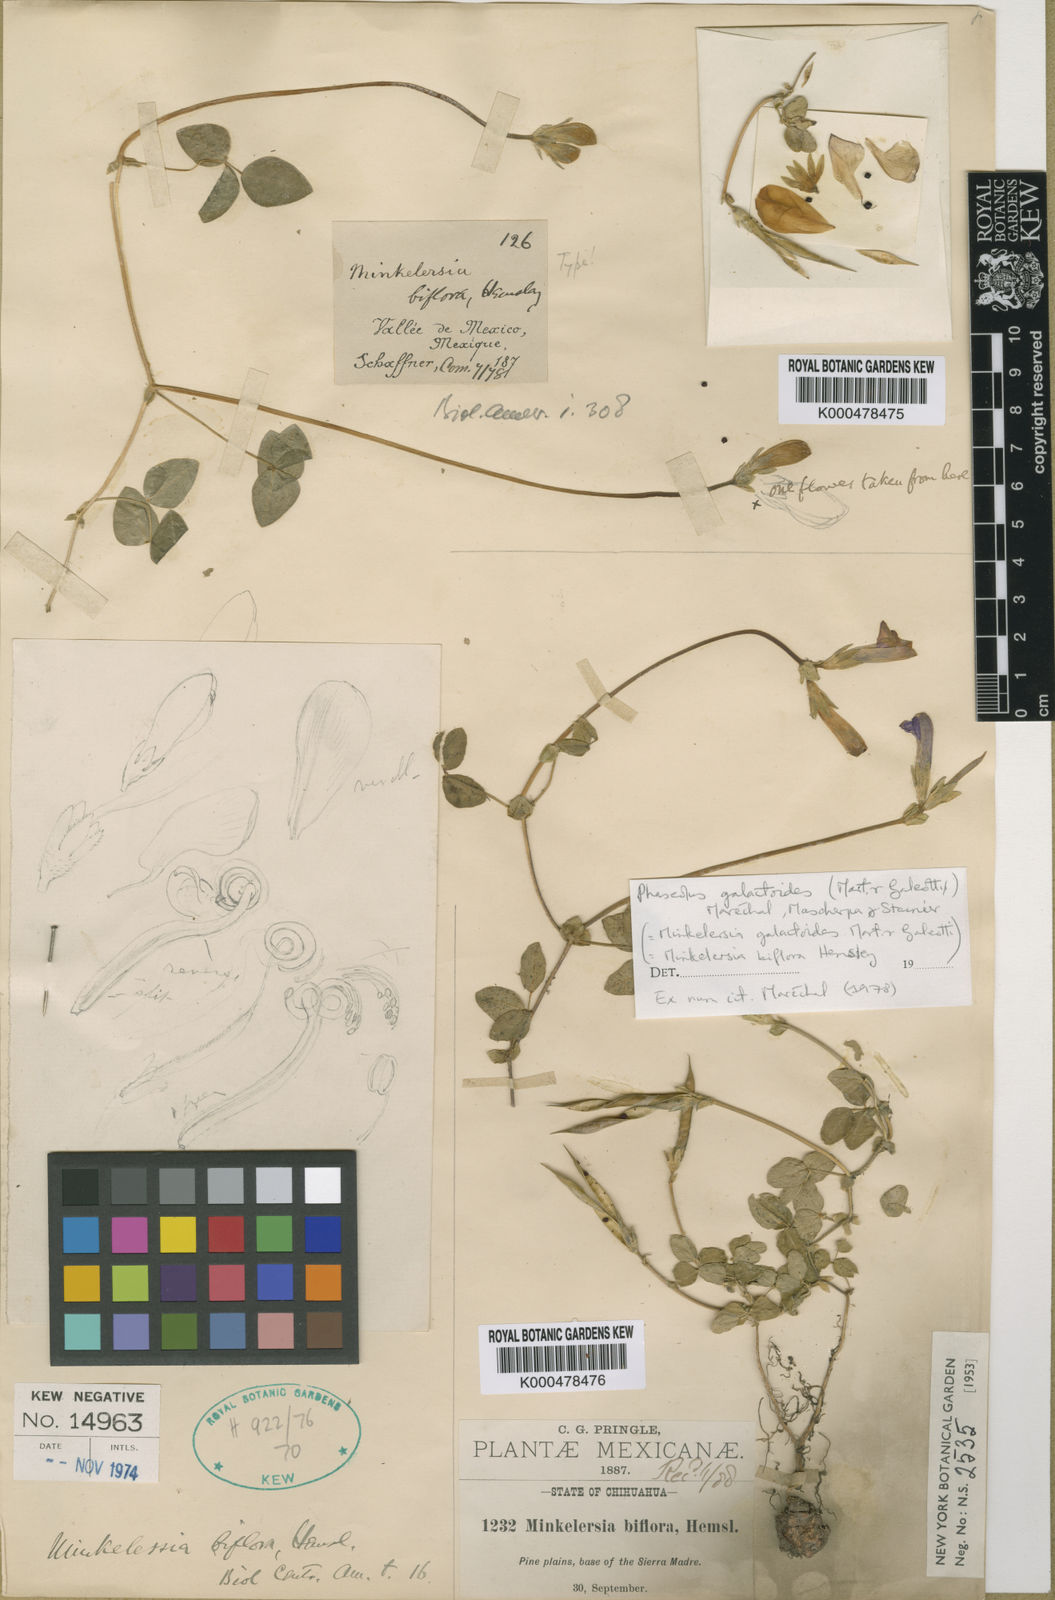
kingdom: Plantae
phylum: Tracheophyta
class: Magnoliopsida
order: Fabales
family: Fabaceae
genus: Phaseolus
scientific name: Phaseolus
